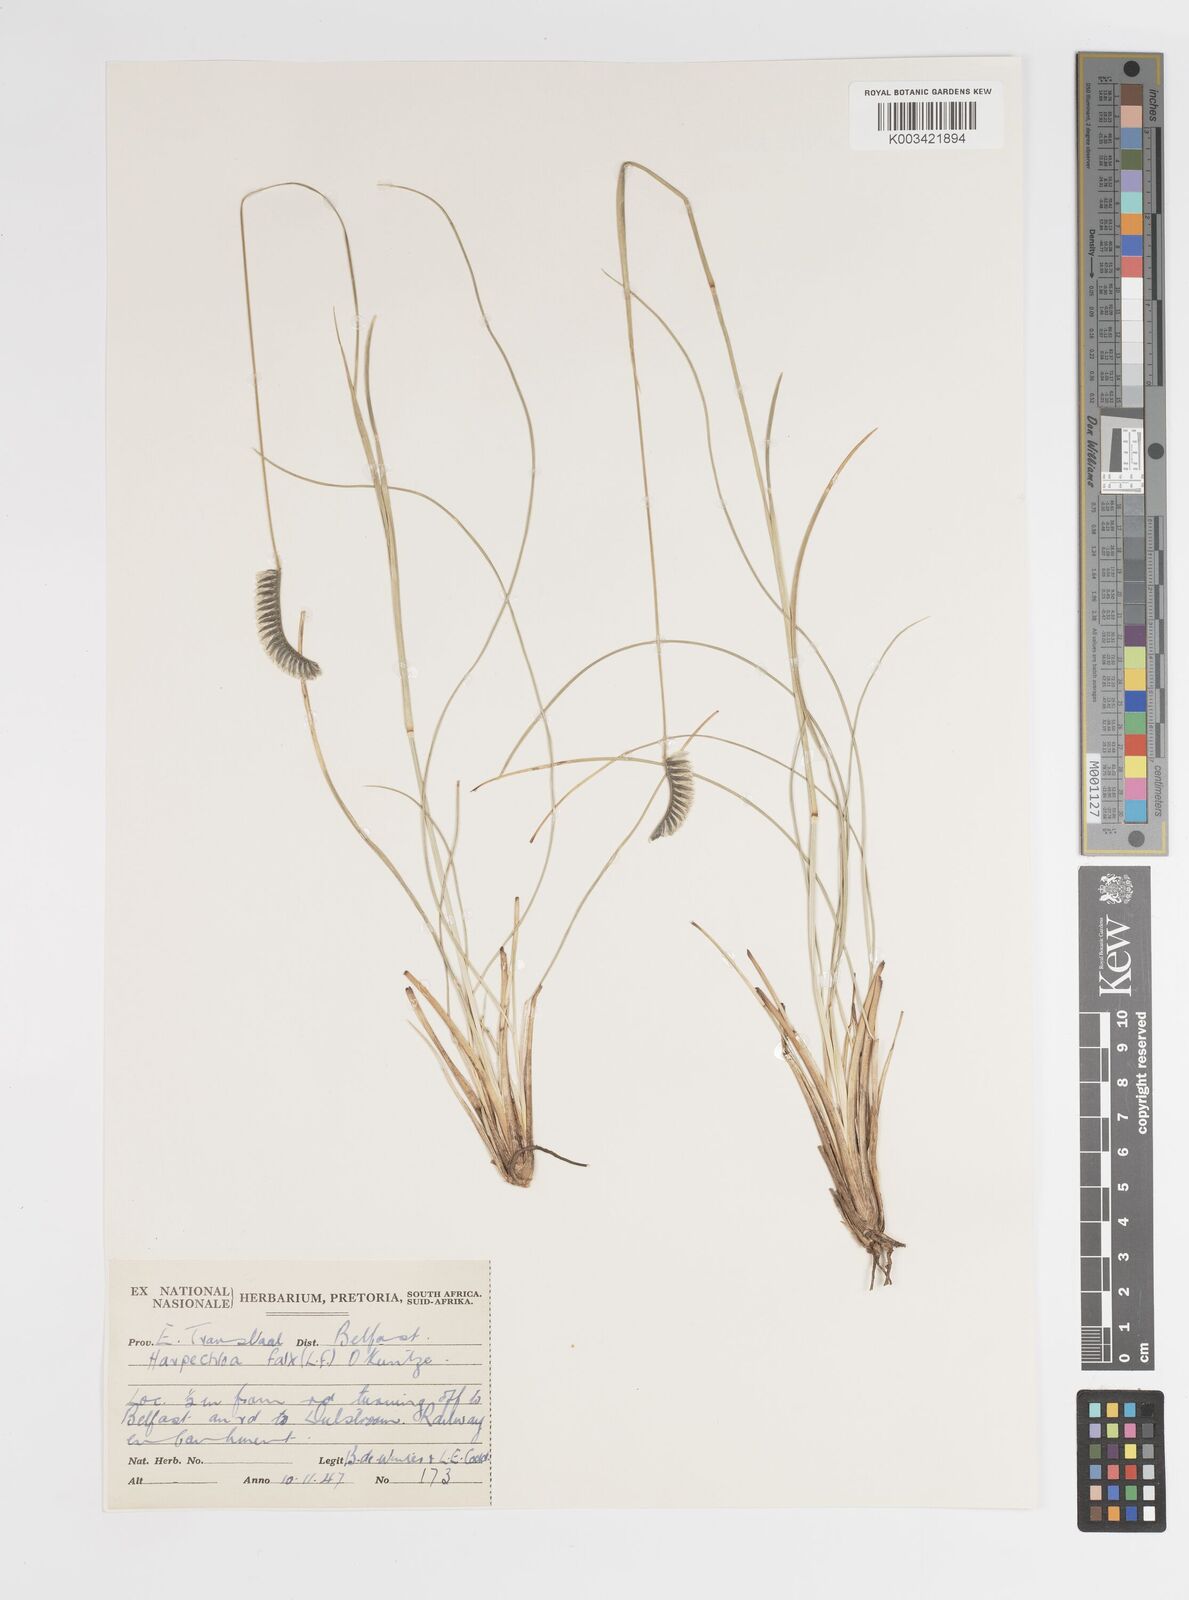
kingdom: Plantae
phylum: Tracheophyta
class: Liliopsida
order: Poales
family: Poaceae
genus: Harpochloa
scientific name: Harpochloa falx
